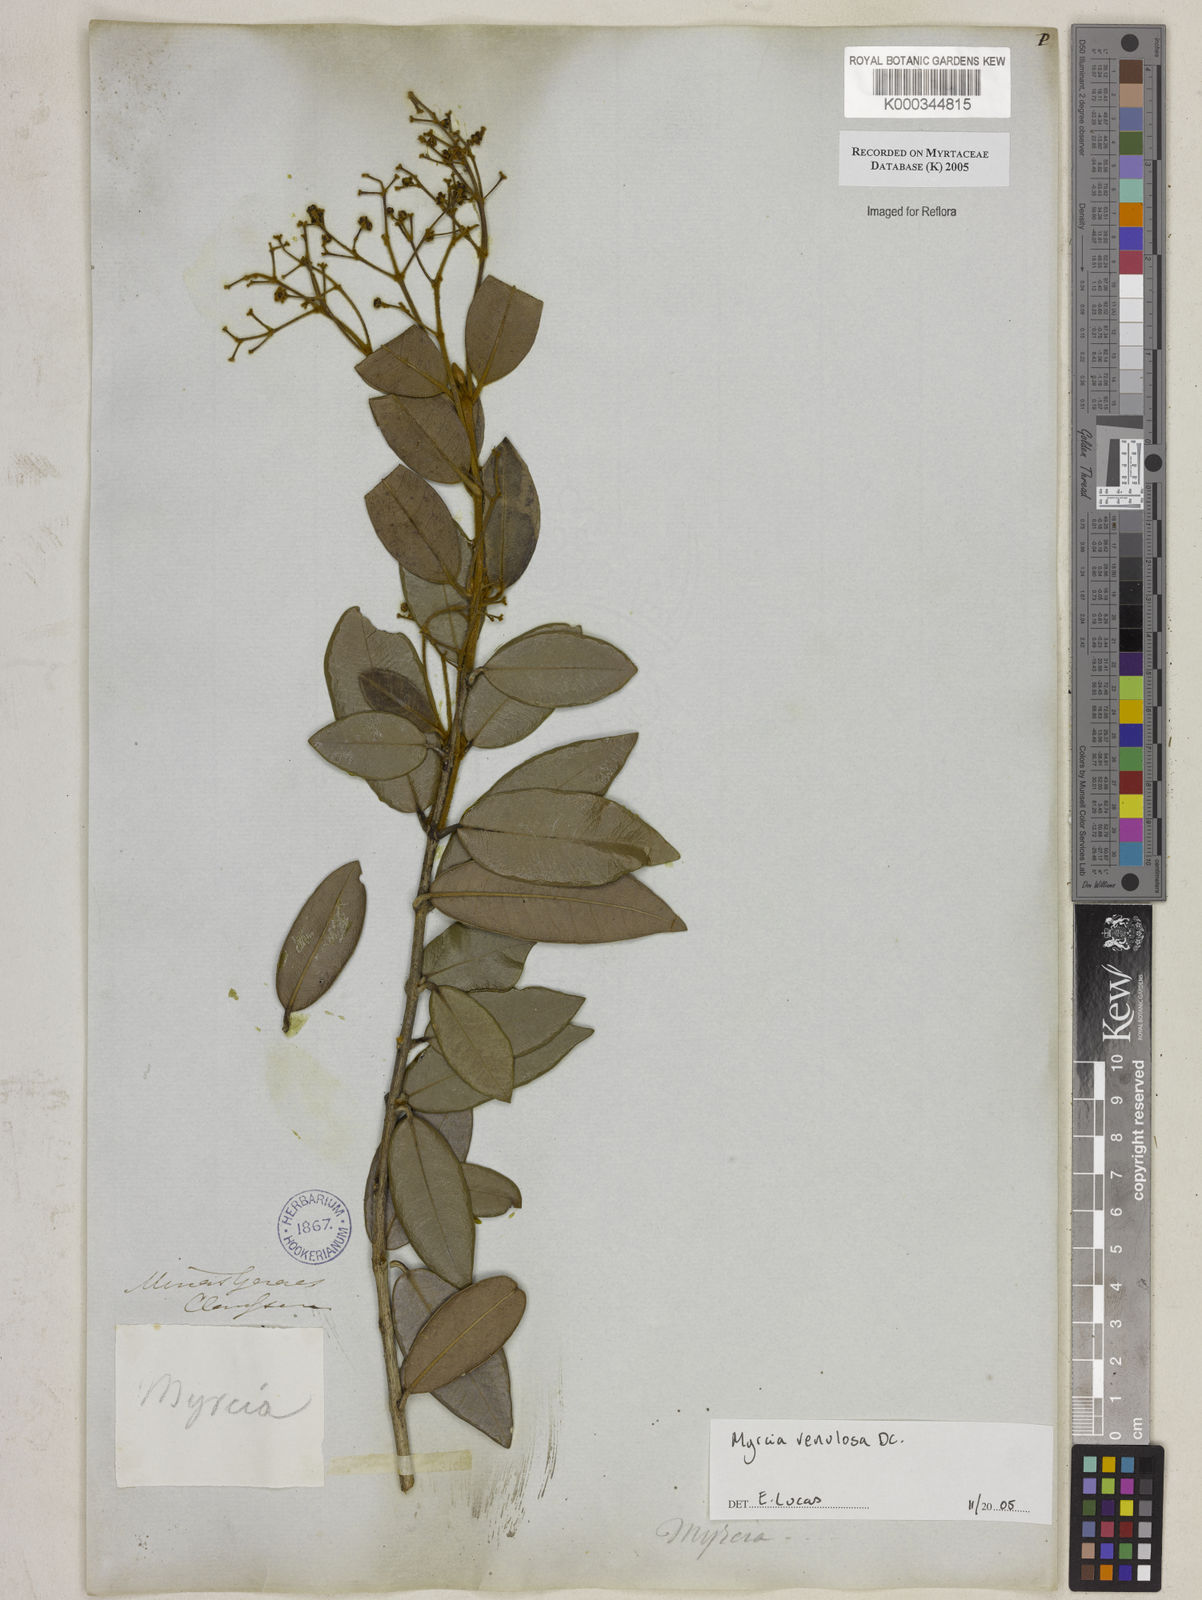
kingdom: Plantae
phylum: Tracheophyta
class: Magnoliopsida
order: Myrtales
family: Myrtaceae
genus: Myrcia
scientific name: Myrcia venulosa
